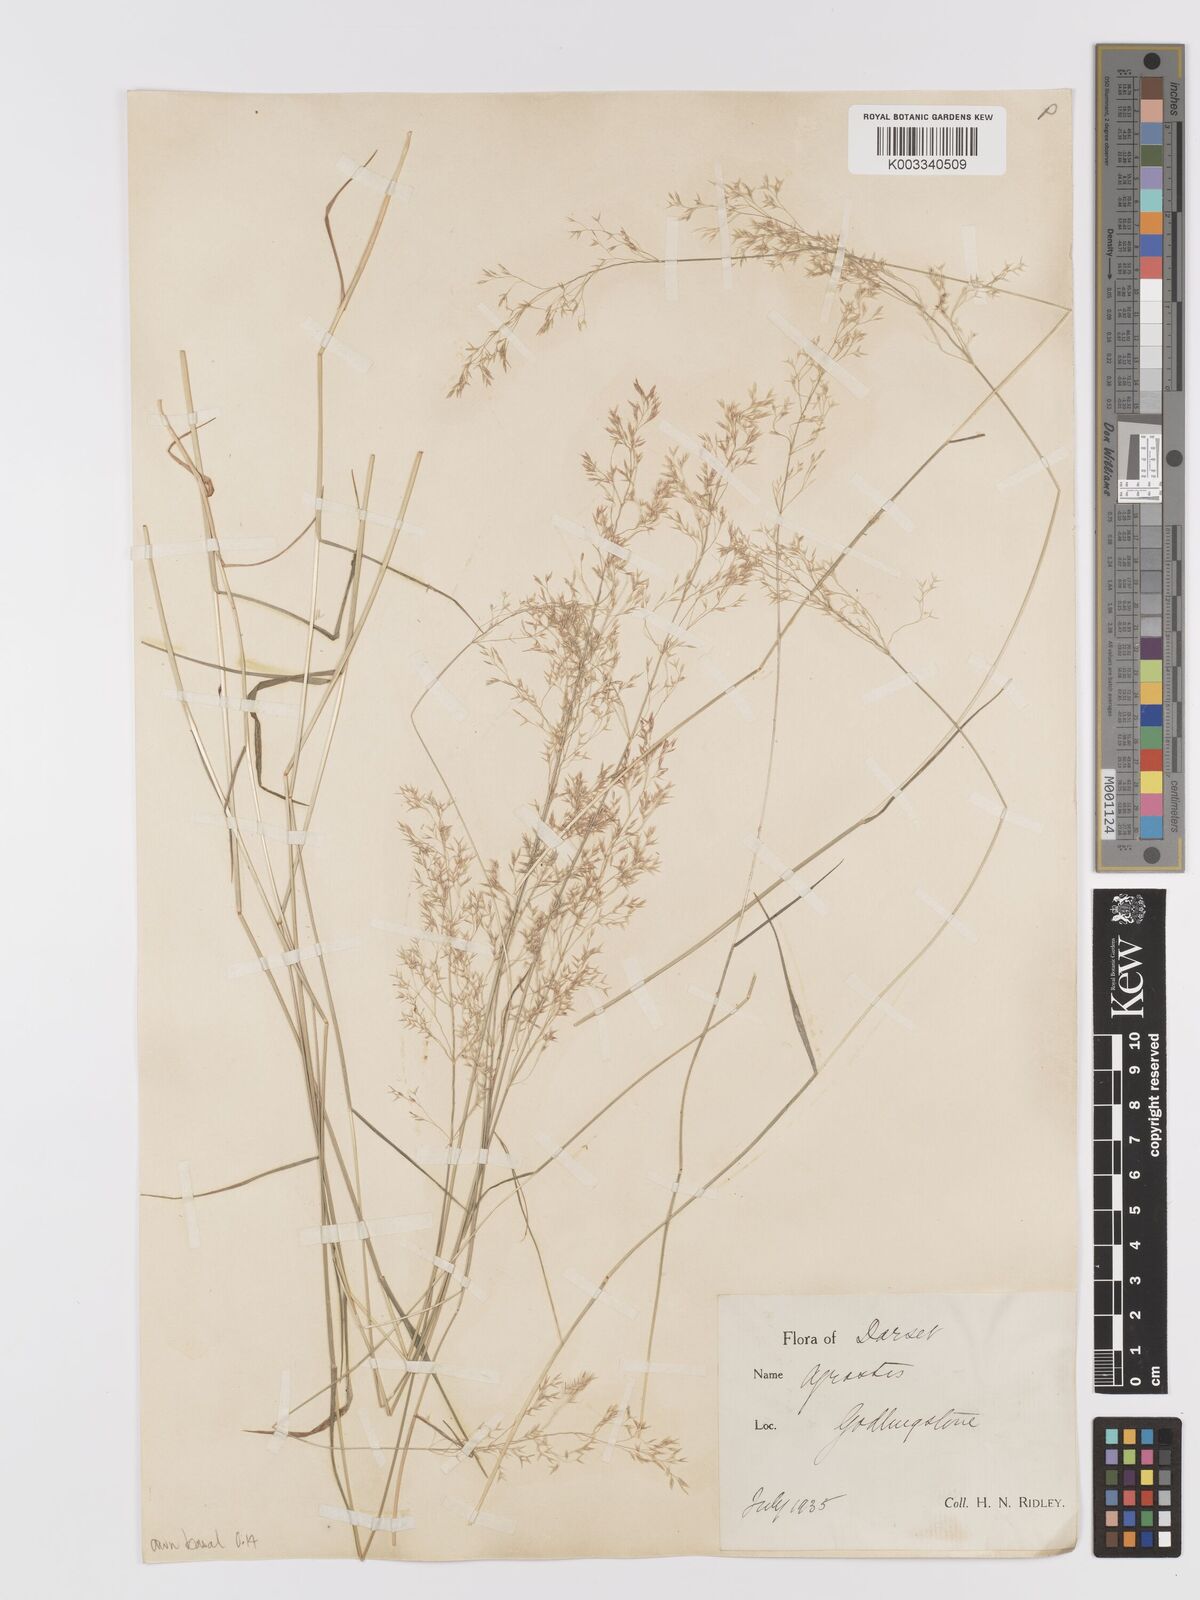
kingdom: Plantae
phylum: Tracheophyta
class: Liliopsida
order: Poales
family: Poaceae
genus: Agrostis
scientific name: Agrostis capillaris
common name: Colonial bentgrass
